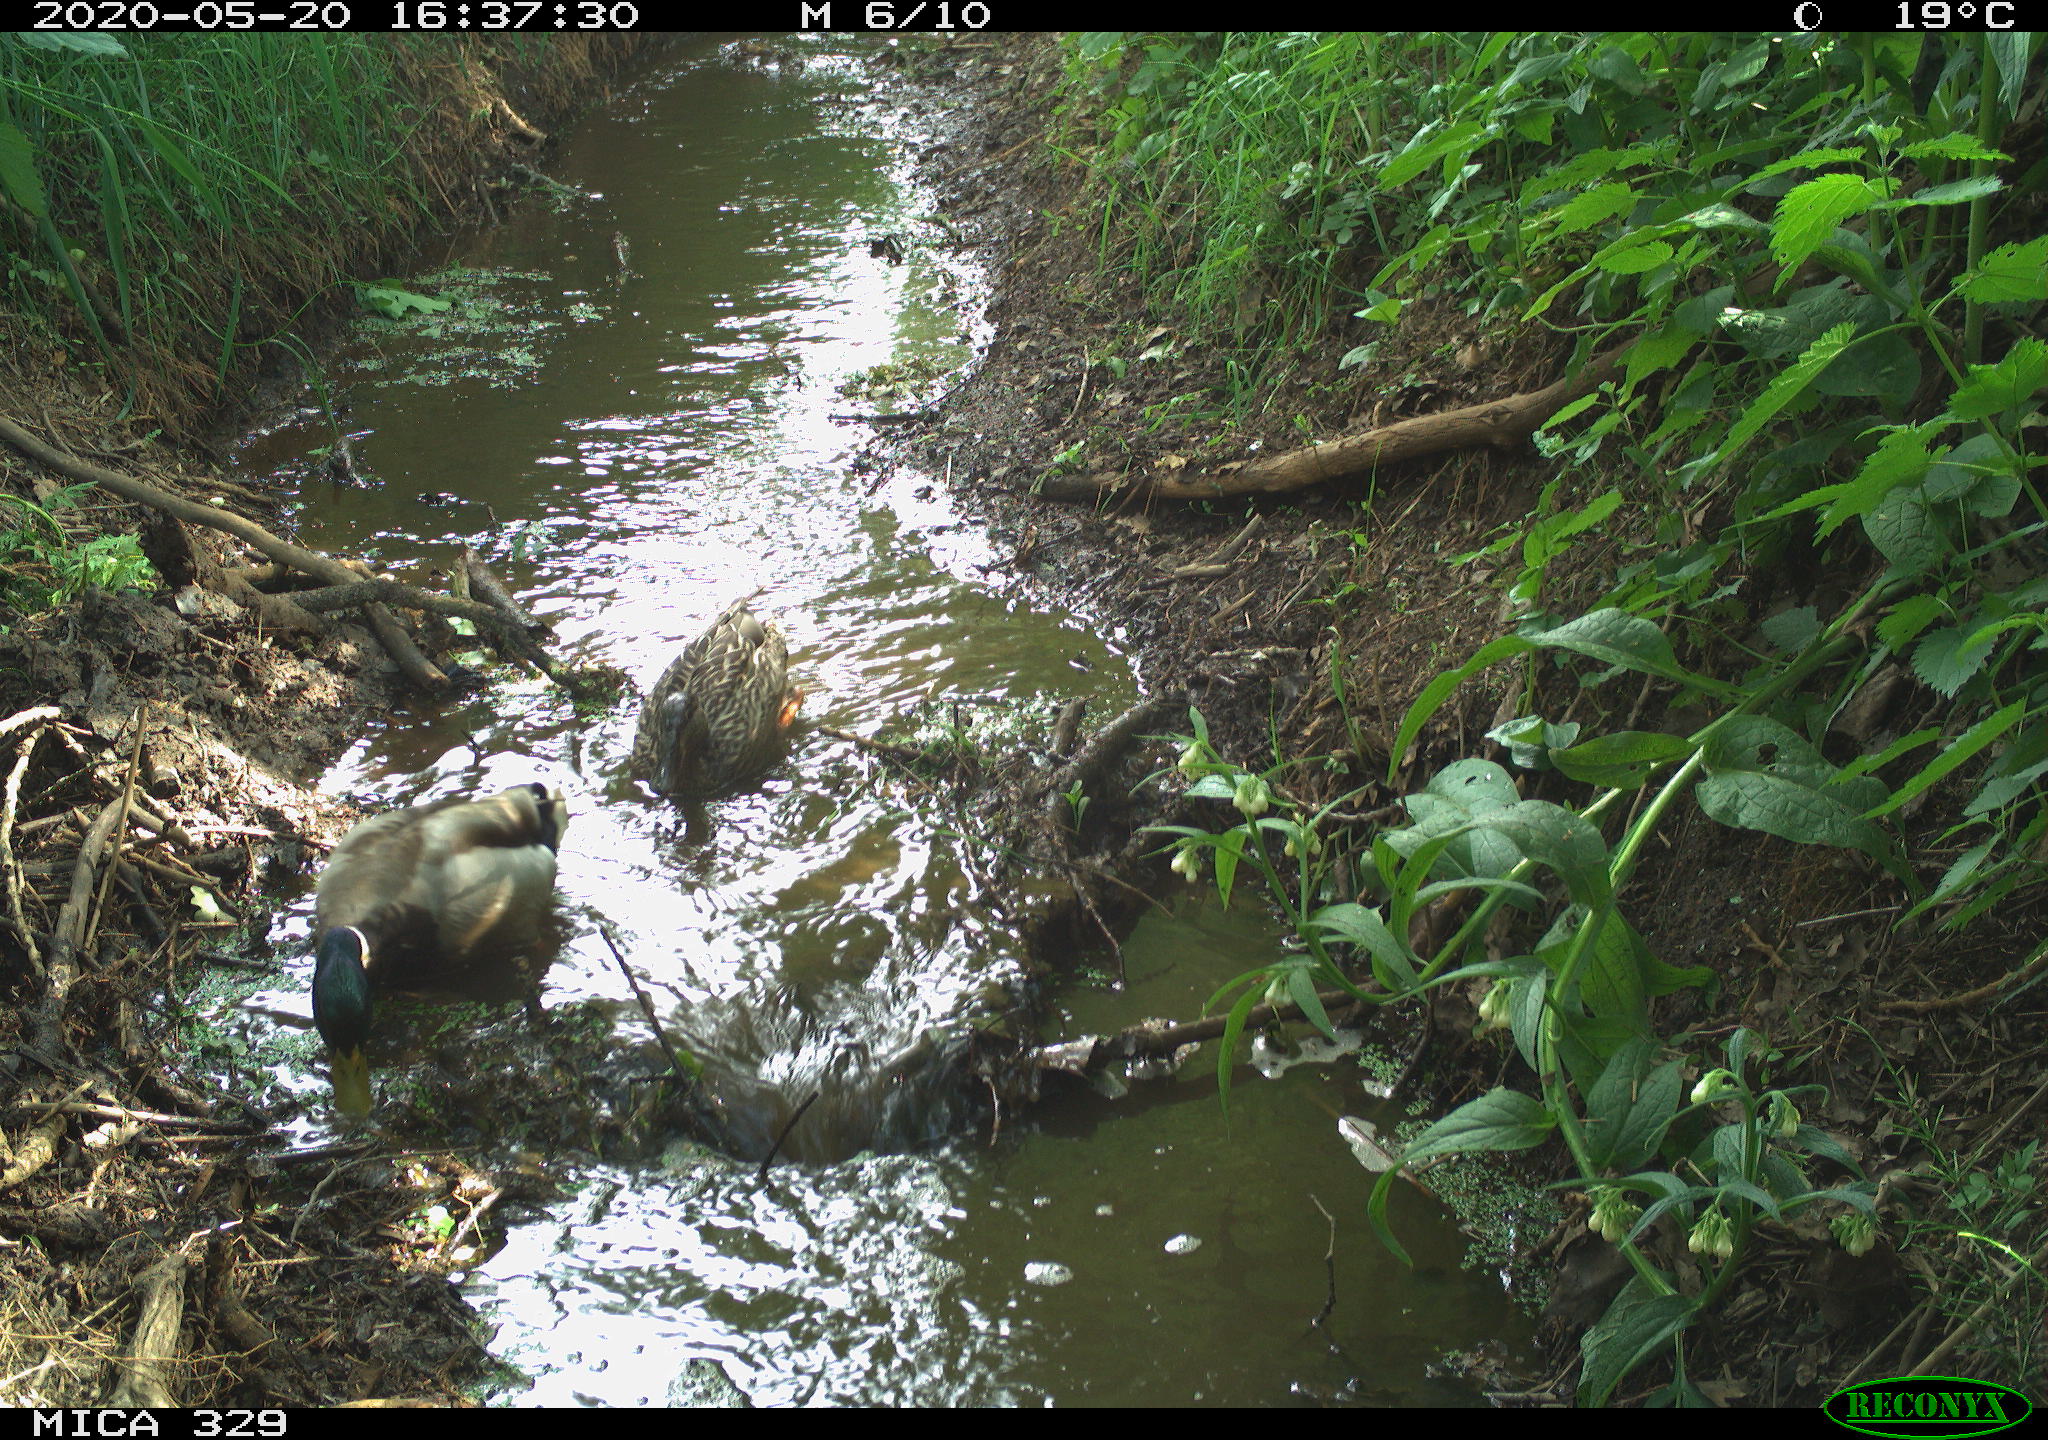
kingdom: Animalia
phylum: Chordata
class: Aves
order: Anseriformes
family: Anatidae
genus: Anas
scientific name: Anas platyrhynchos
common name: Mallard
